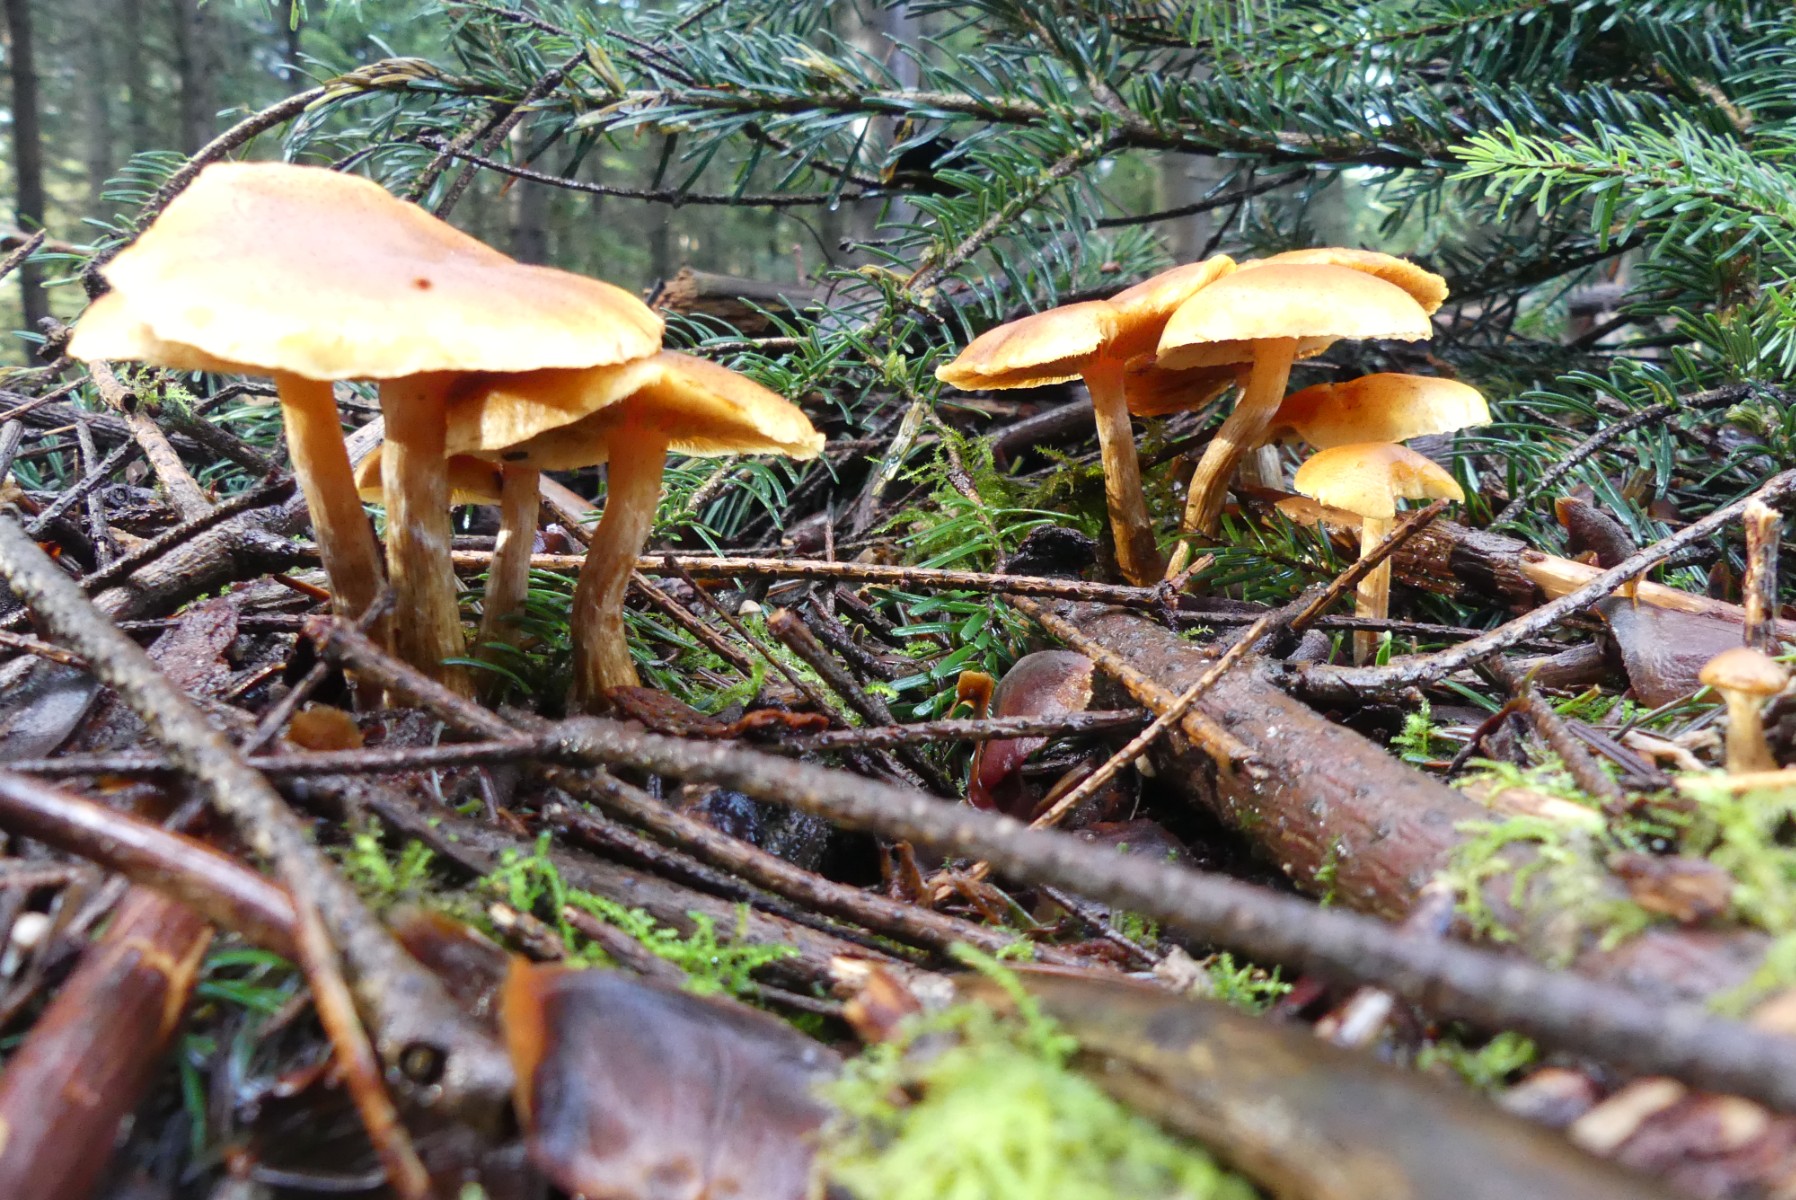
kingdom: Fungi
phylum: Basidiomycota
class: Agaricomycetes
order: Agaricales
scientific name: Agaricales
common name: champignonordenen
